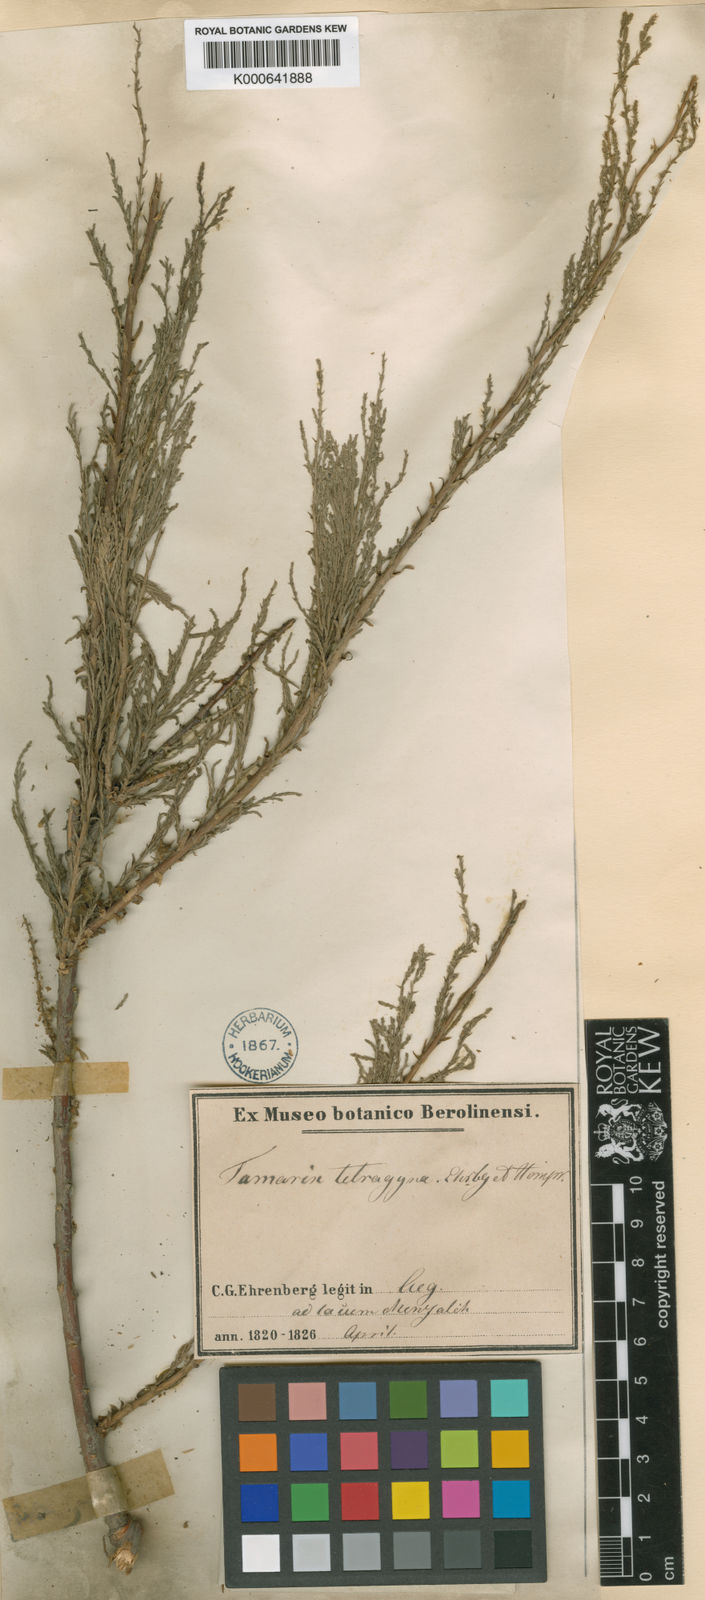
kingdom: Plantae
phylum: Tracheophyta
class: Magnoliopsida
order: Caryophyllales
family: Tamaricaceae
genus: Tamarix
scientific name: Tamarix tetragyna
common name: Four-stamen tamarisk
